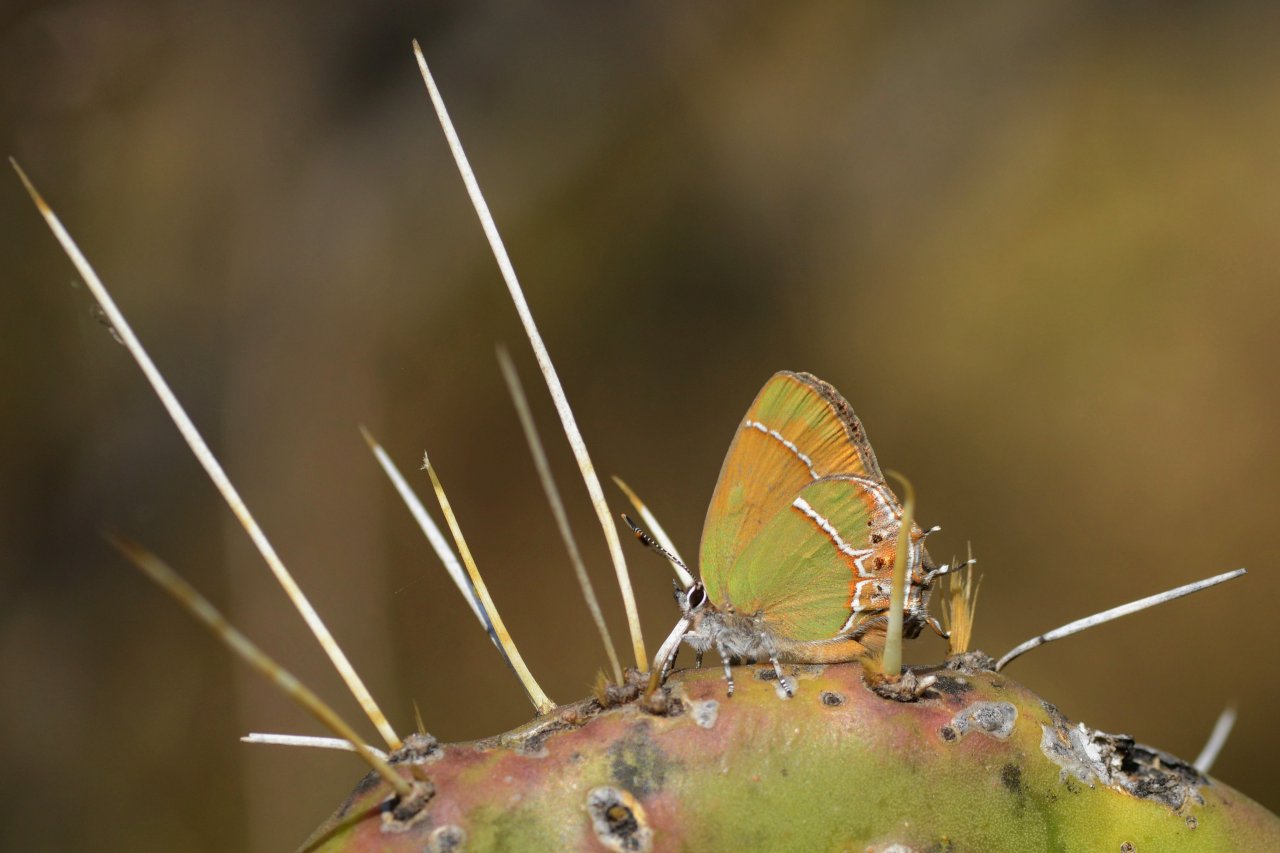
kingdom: Animalia
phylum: Arthropoda
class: Insecta
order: Lepidoptera
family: Lycaenidae
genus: Xamia
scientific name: Xamia xami
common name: Xami Hairstreak
